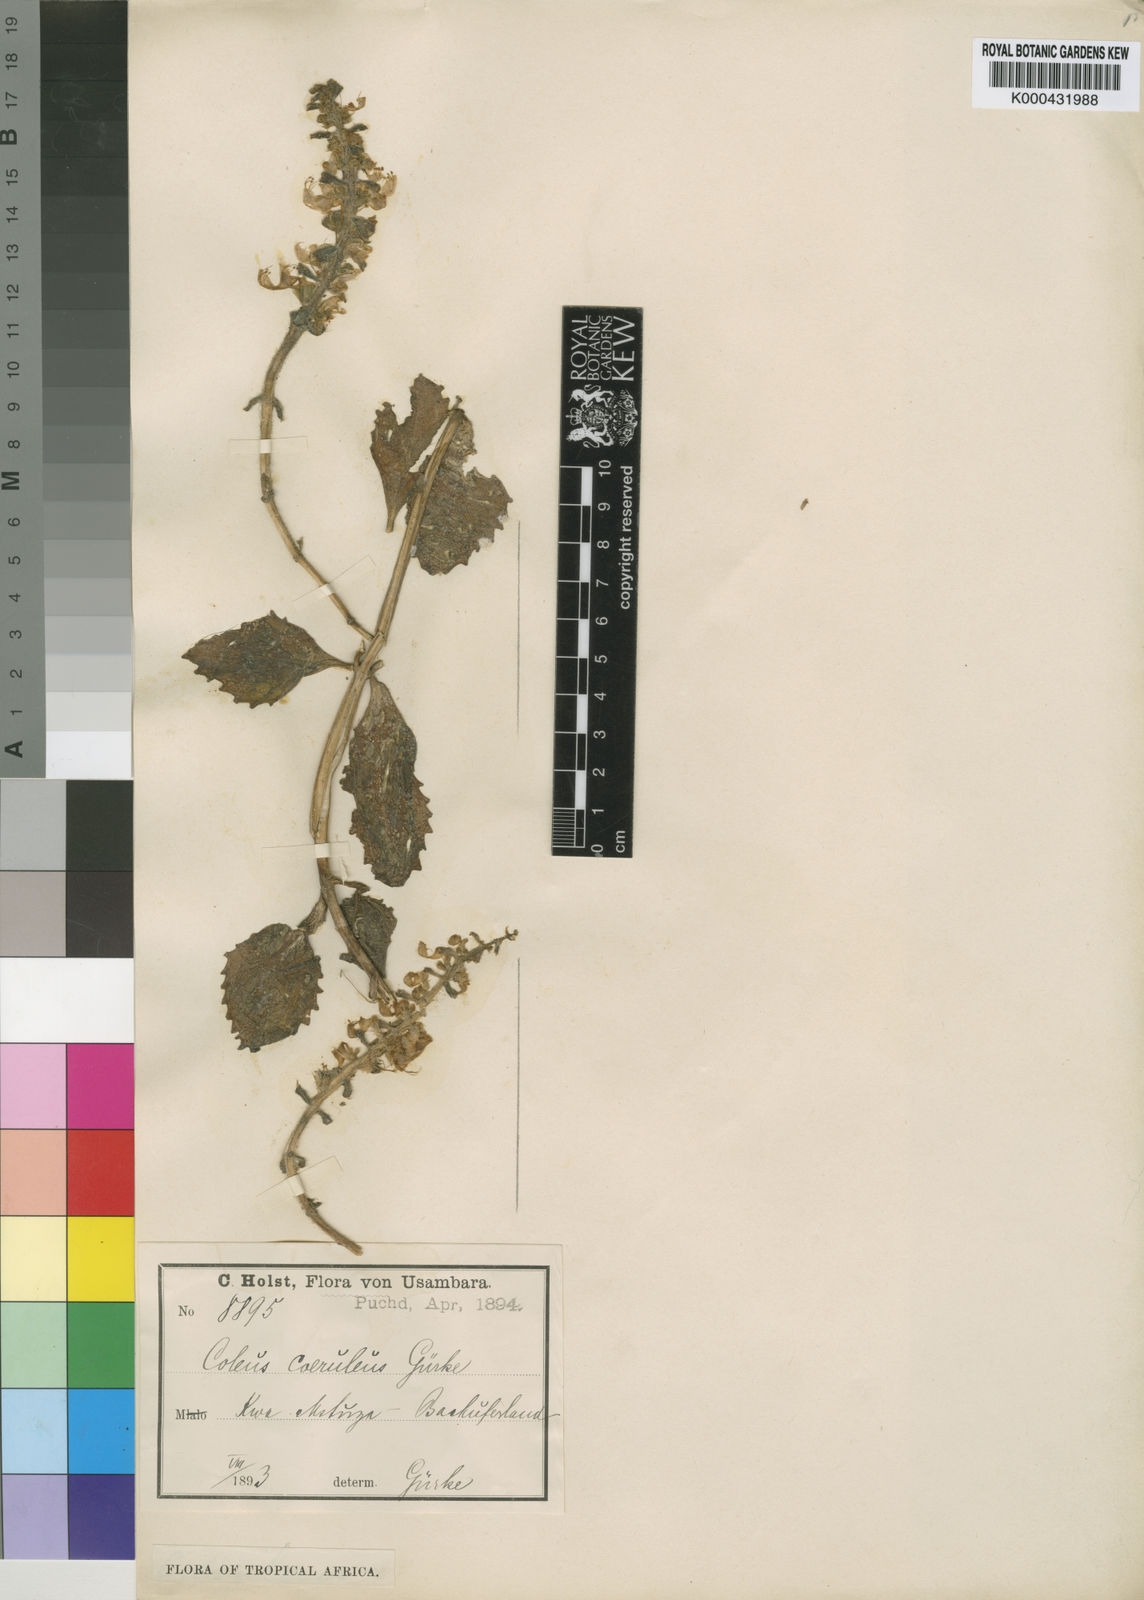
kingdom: Plantae
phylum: Tracheophyta
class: Magnoliopsida
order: Lamiales
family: Lamiaceae
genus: Plectranthus
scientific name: Plectranthus
